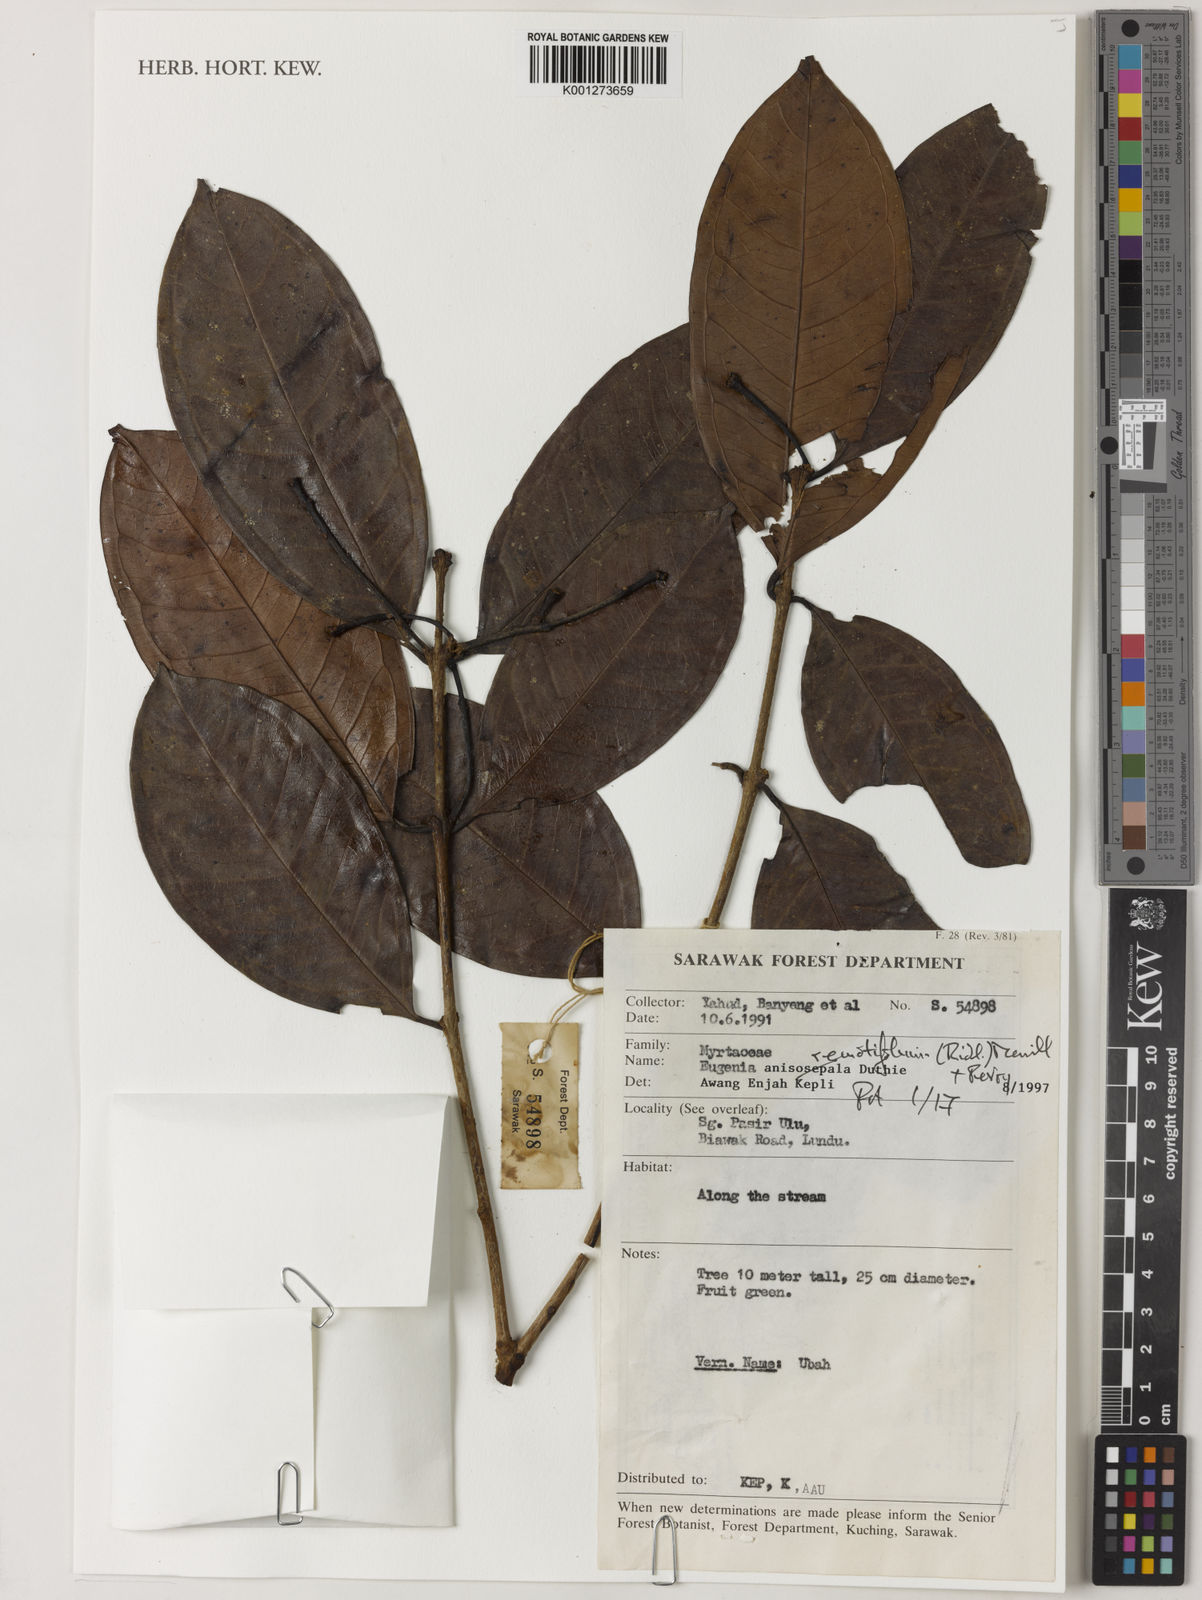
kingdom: Plantae
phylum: Tracheophyta
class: Magnoliopsida
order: Myrtales
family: Myrtaceae
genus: Syzygium
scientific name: Syzygium remotifolium
